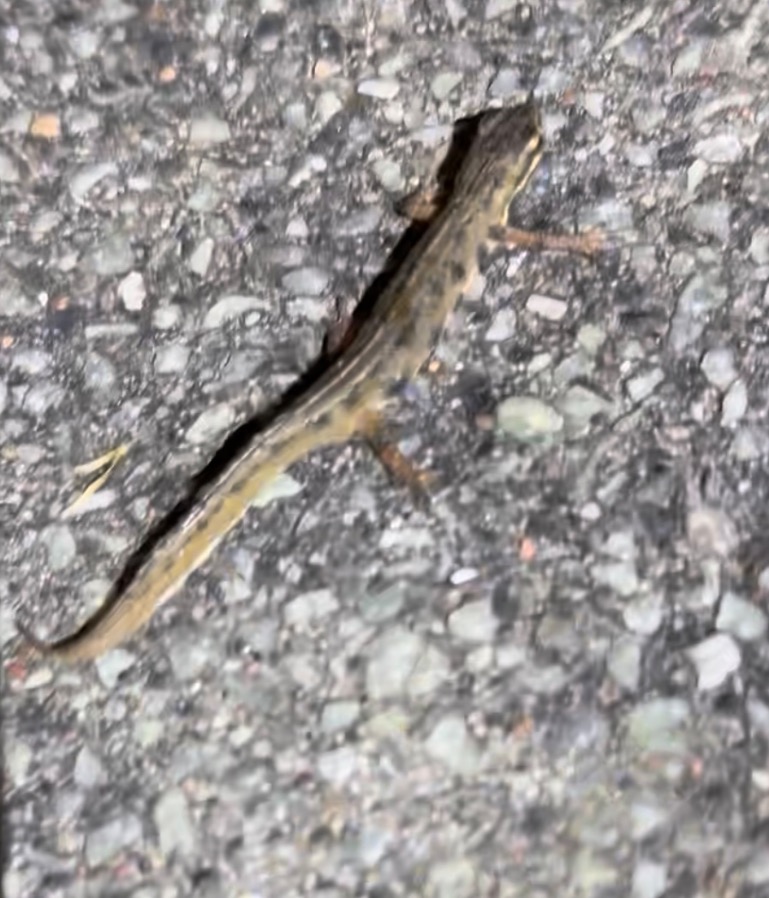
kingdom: Animalia
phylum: Chordata
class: Amphibia
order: Caudata
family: Salamandridae
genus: Lissotriton
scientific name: Lissotriton vulgaris
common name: Lille vandsalamander
